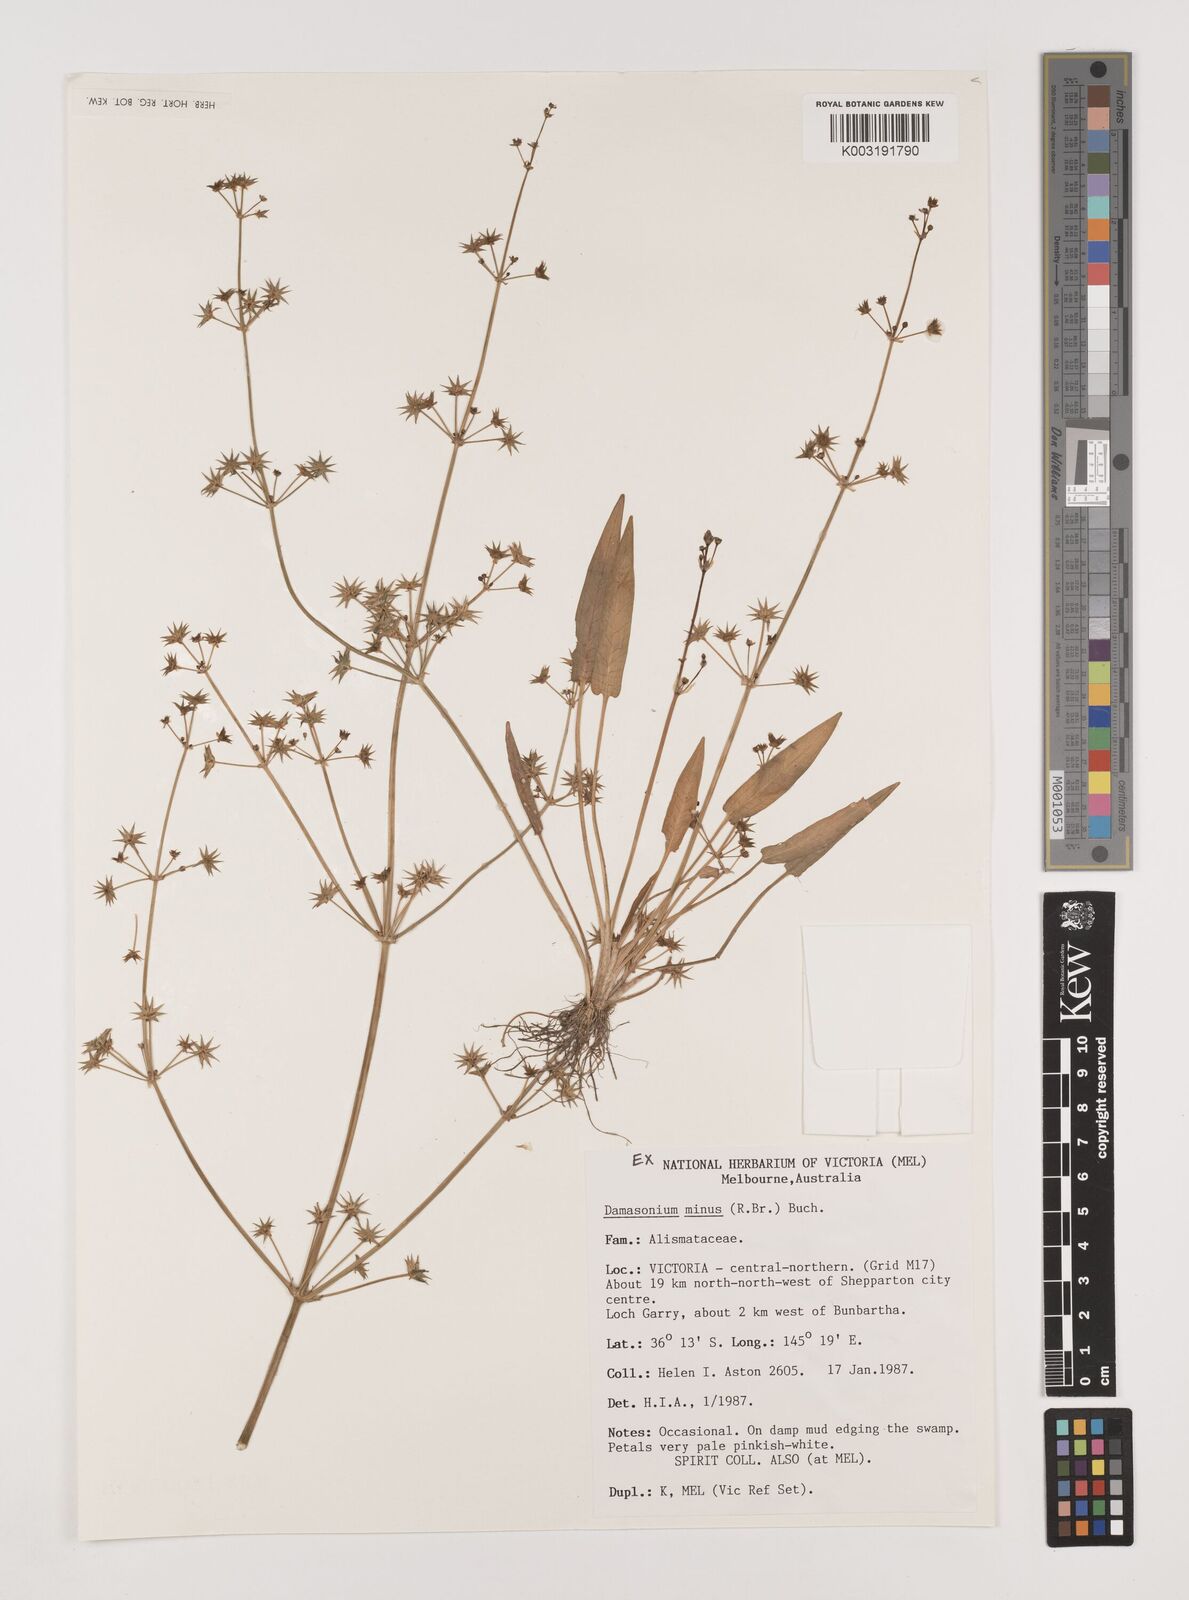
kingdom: Plantae
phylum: Tracheophyta
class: Liliopsida
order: Alismatales
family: Alismataceae
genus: Damasonium
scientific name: Damasonium minus
